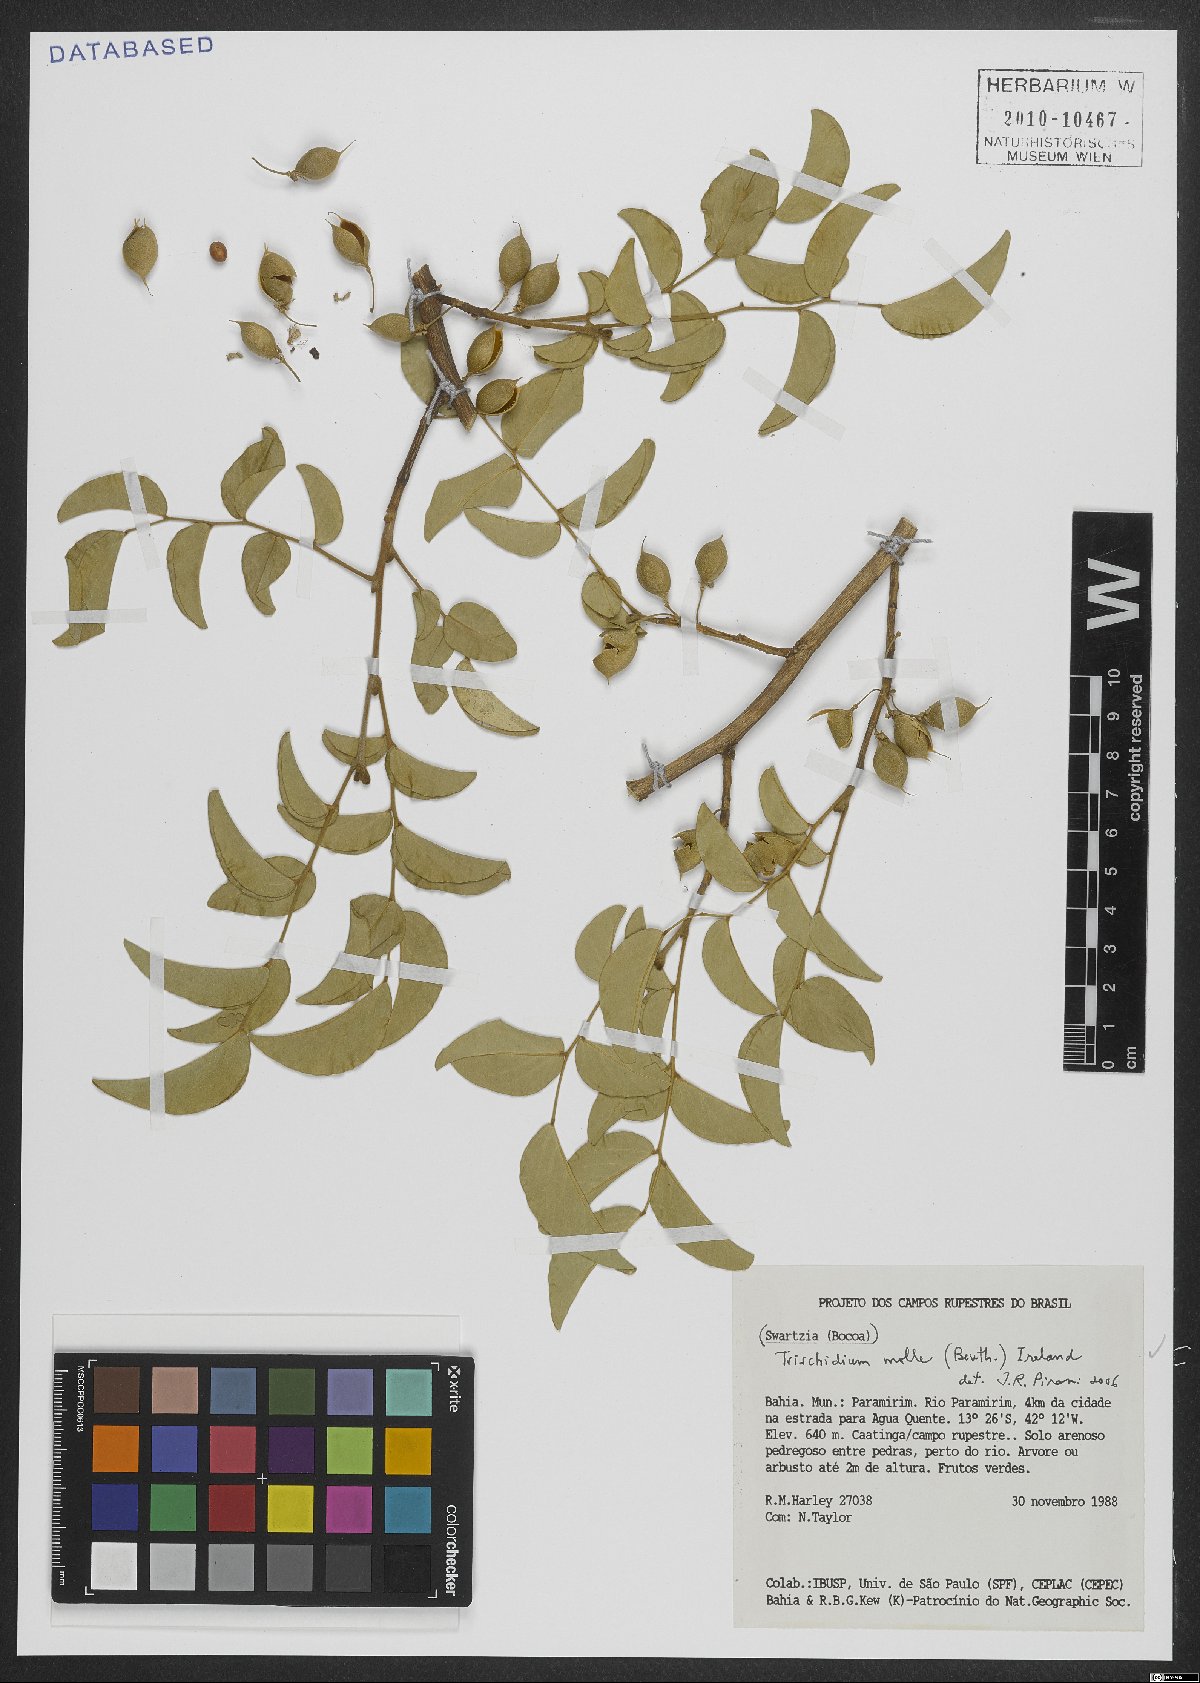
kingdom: Plantae
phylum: Tracheophyta
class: Magnoliopsida
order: Fabales
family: Fabaceae
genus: Trischidium
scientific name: Trischidium molle
